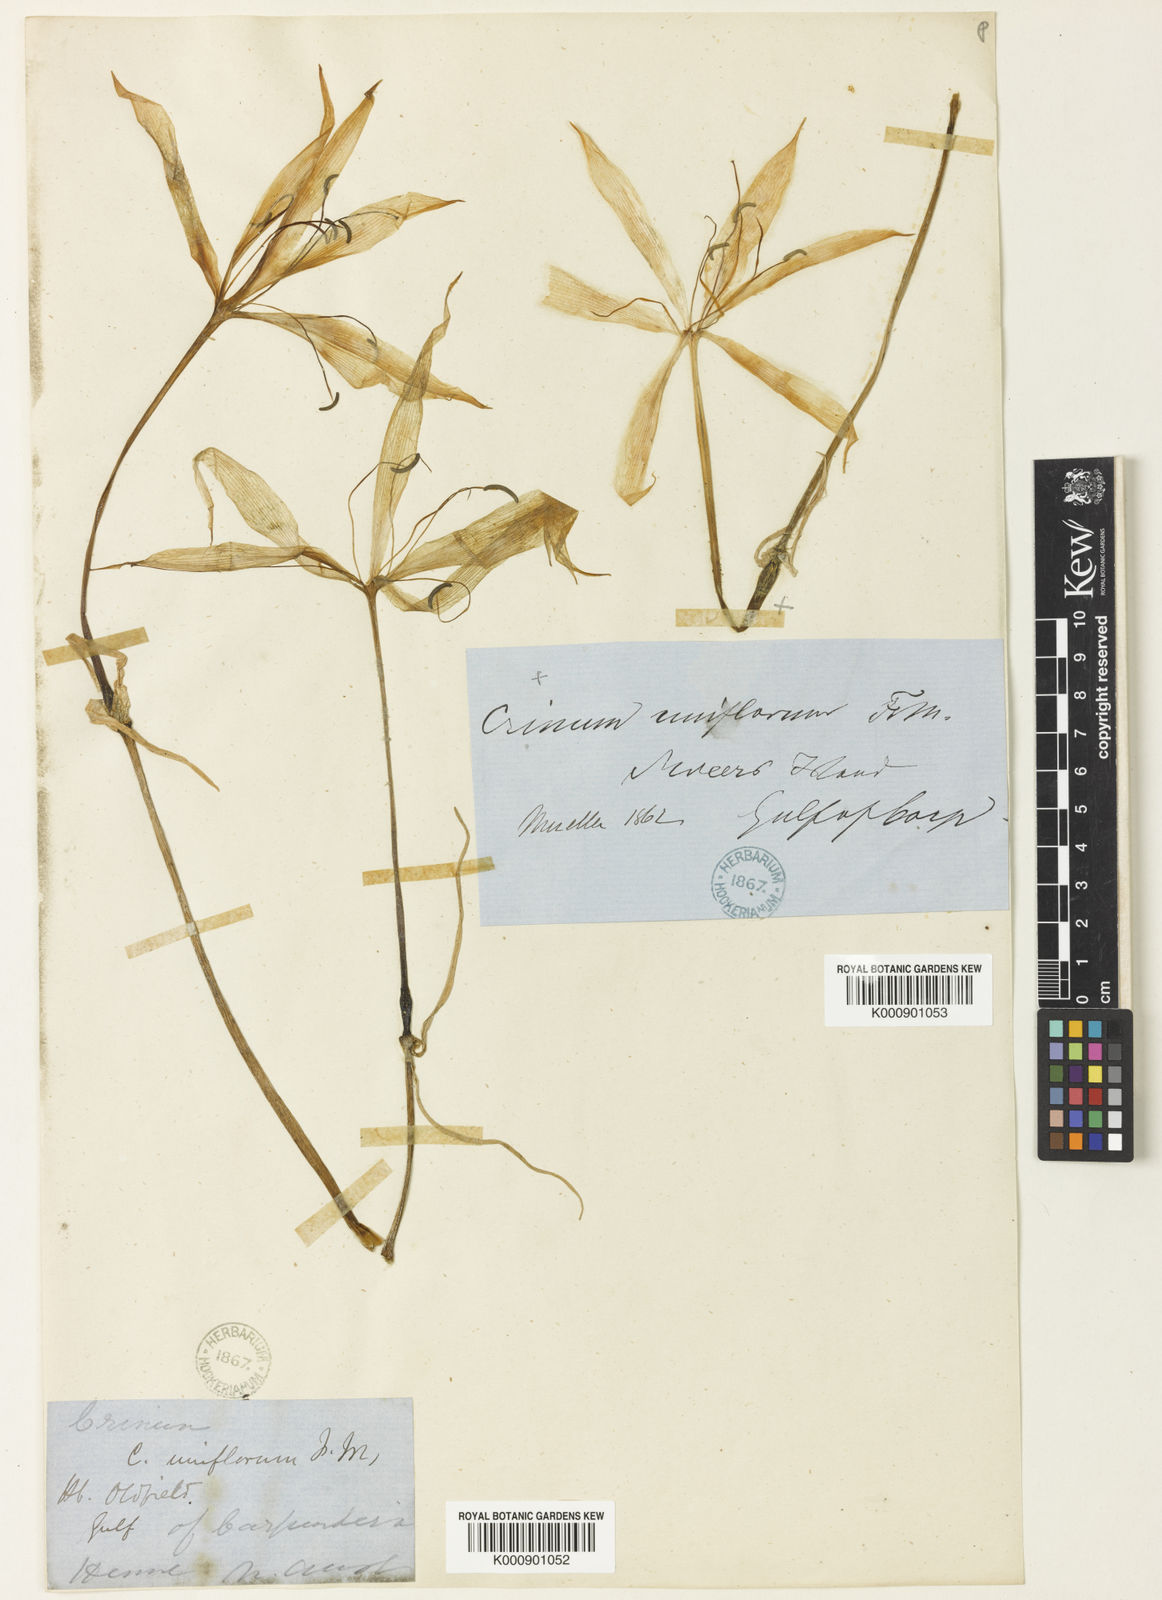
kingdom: Plantae
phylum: Tracheophyta
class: Liliopsida
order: Asparagales
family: Amaryllidaceae
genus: Crinum
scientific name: Crinum uniflorum
